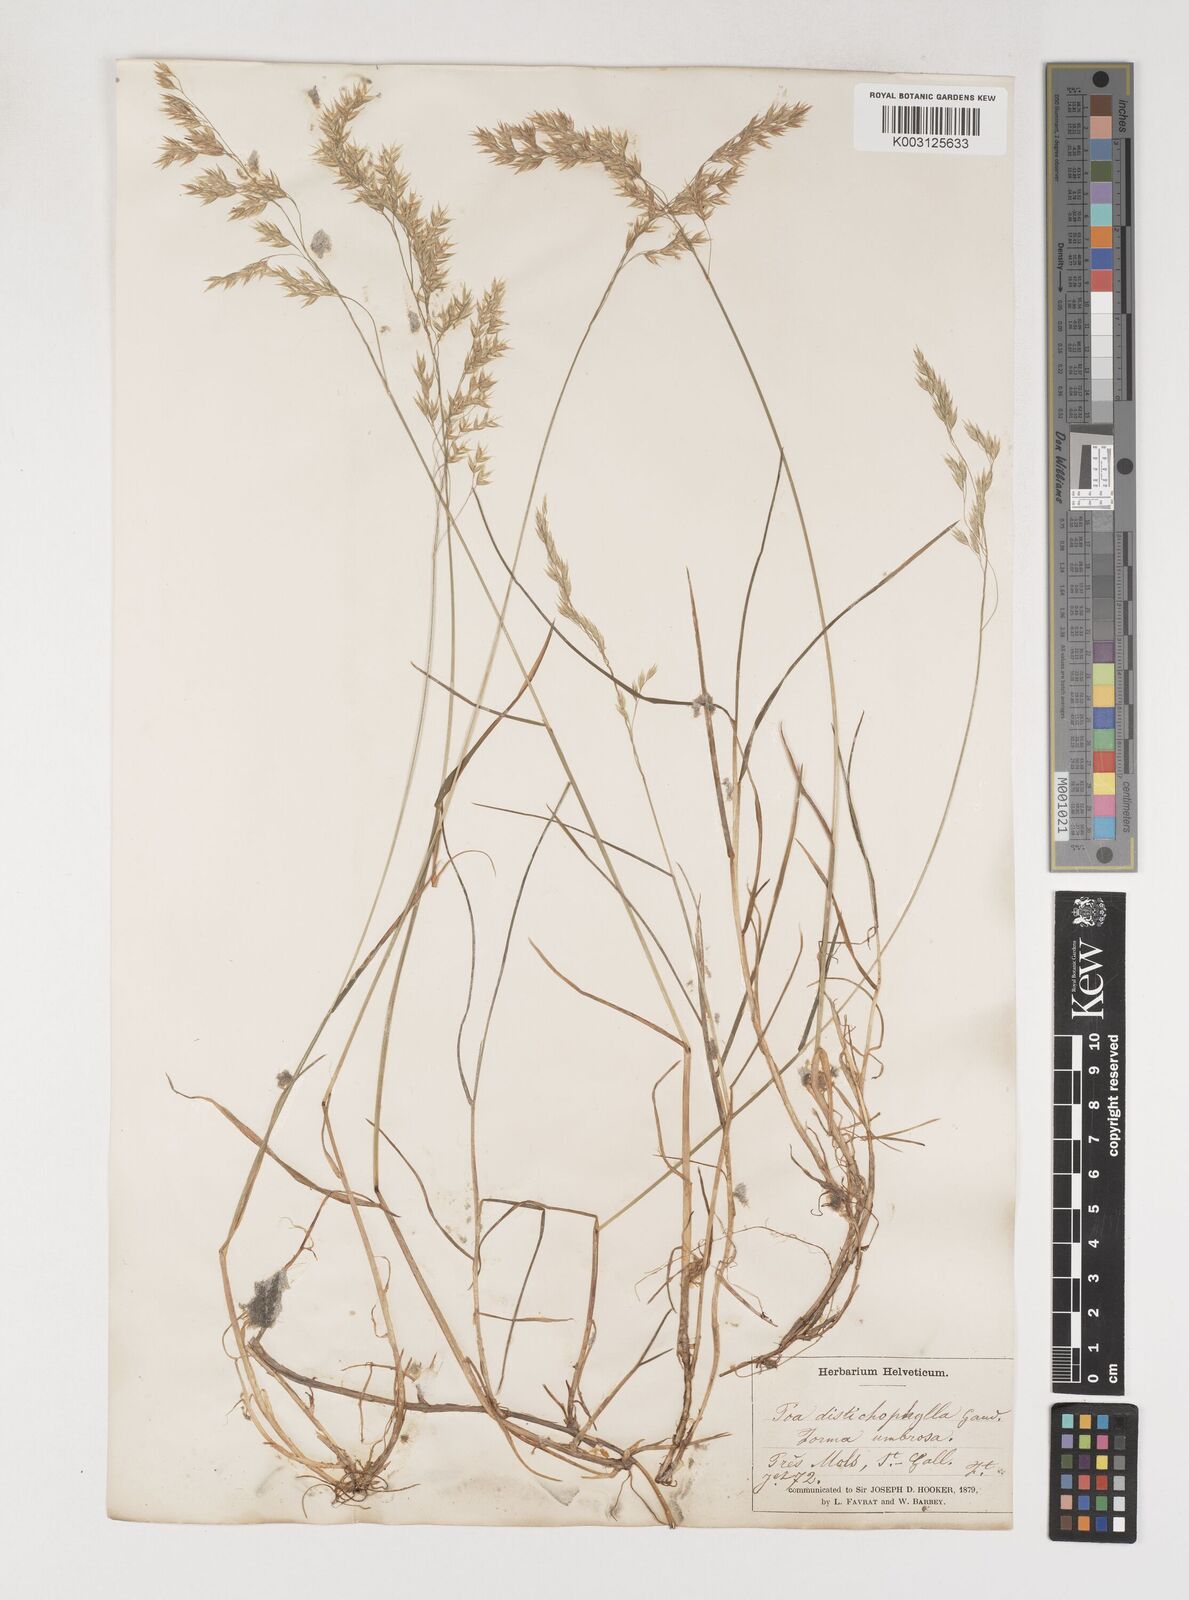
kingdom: Plantae
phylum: Tracheophyta
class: Liliopsida
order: Poales
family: Poaceae
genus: Poa
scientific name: Poa
